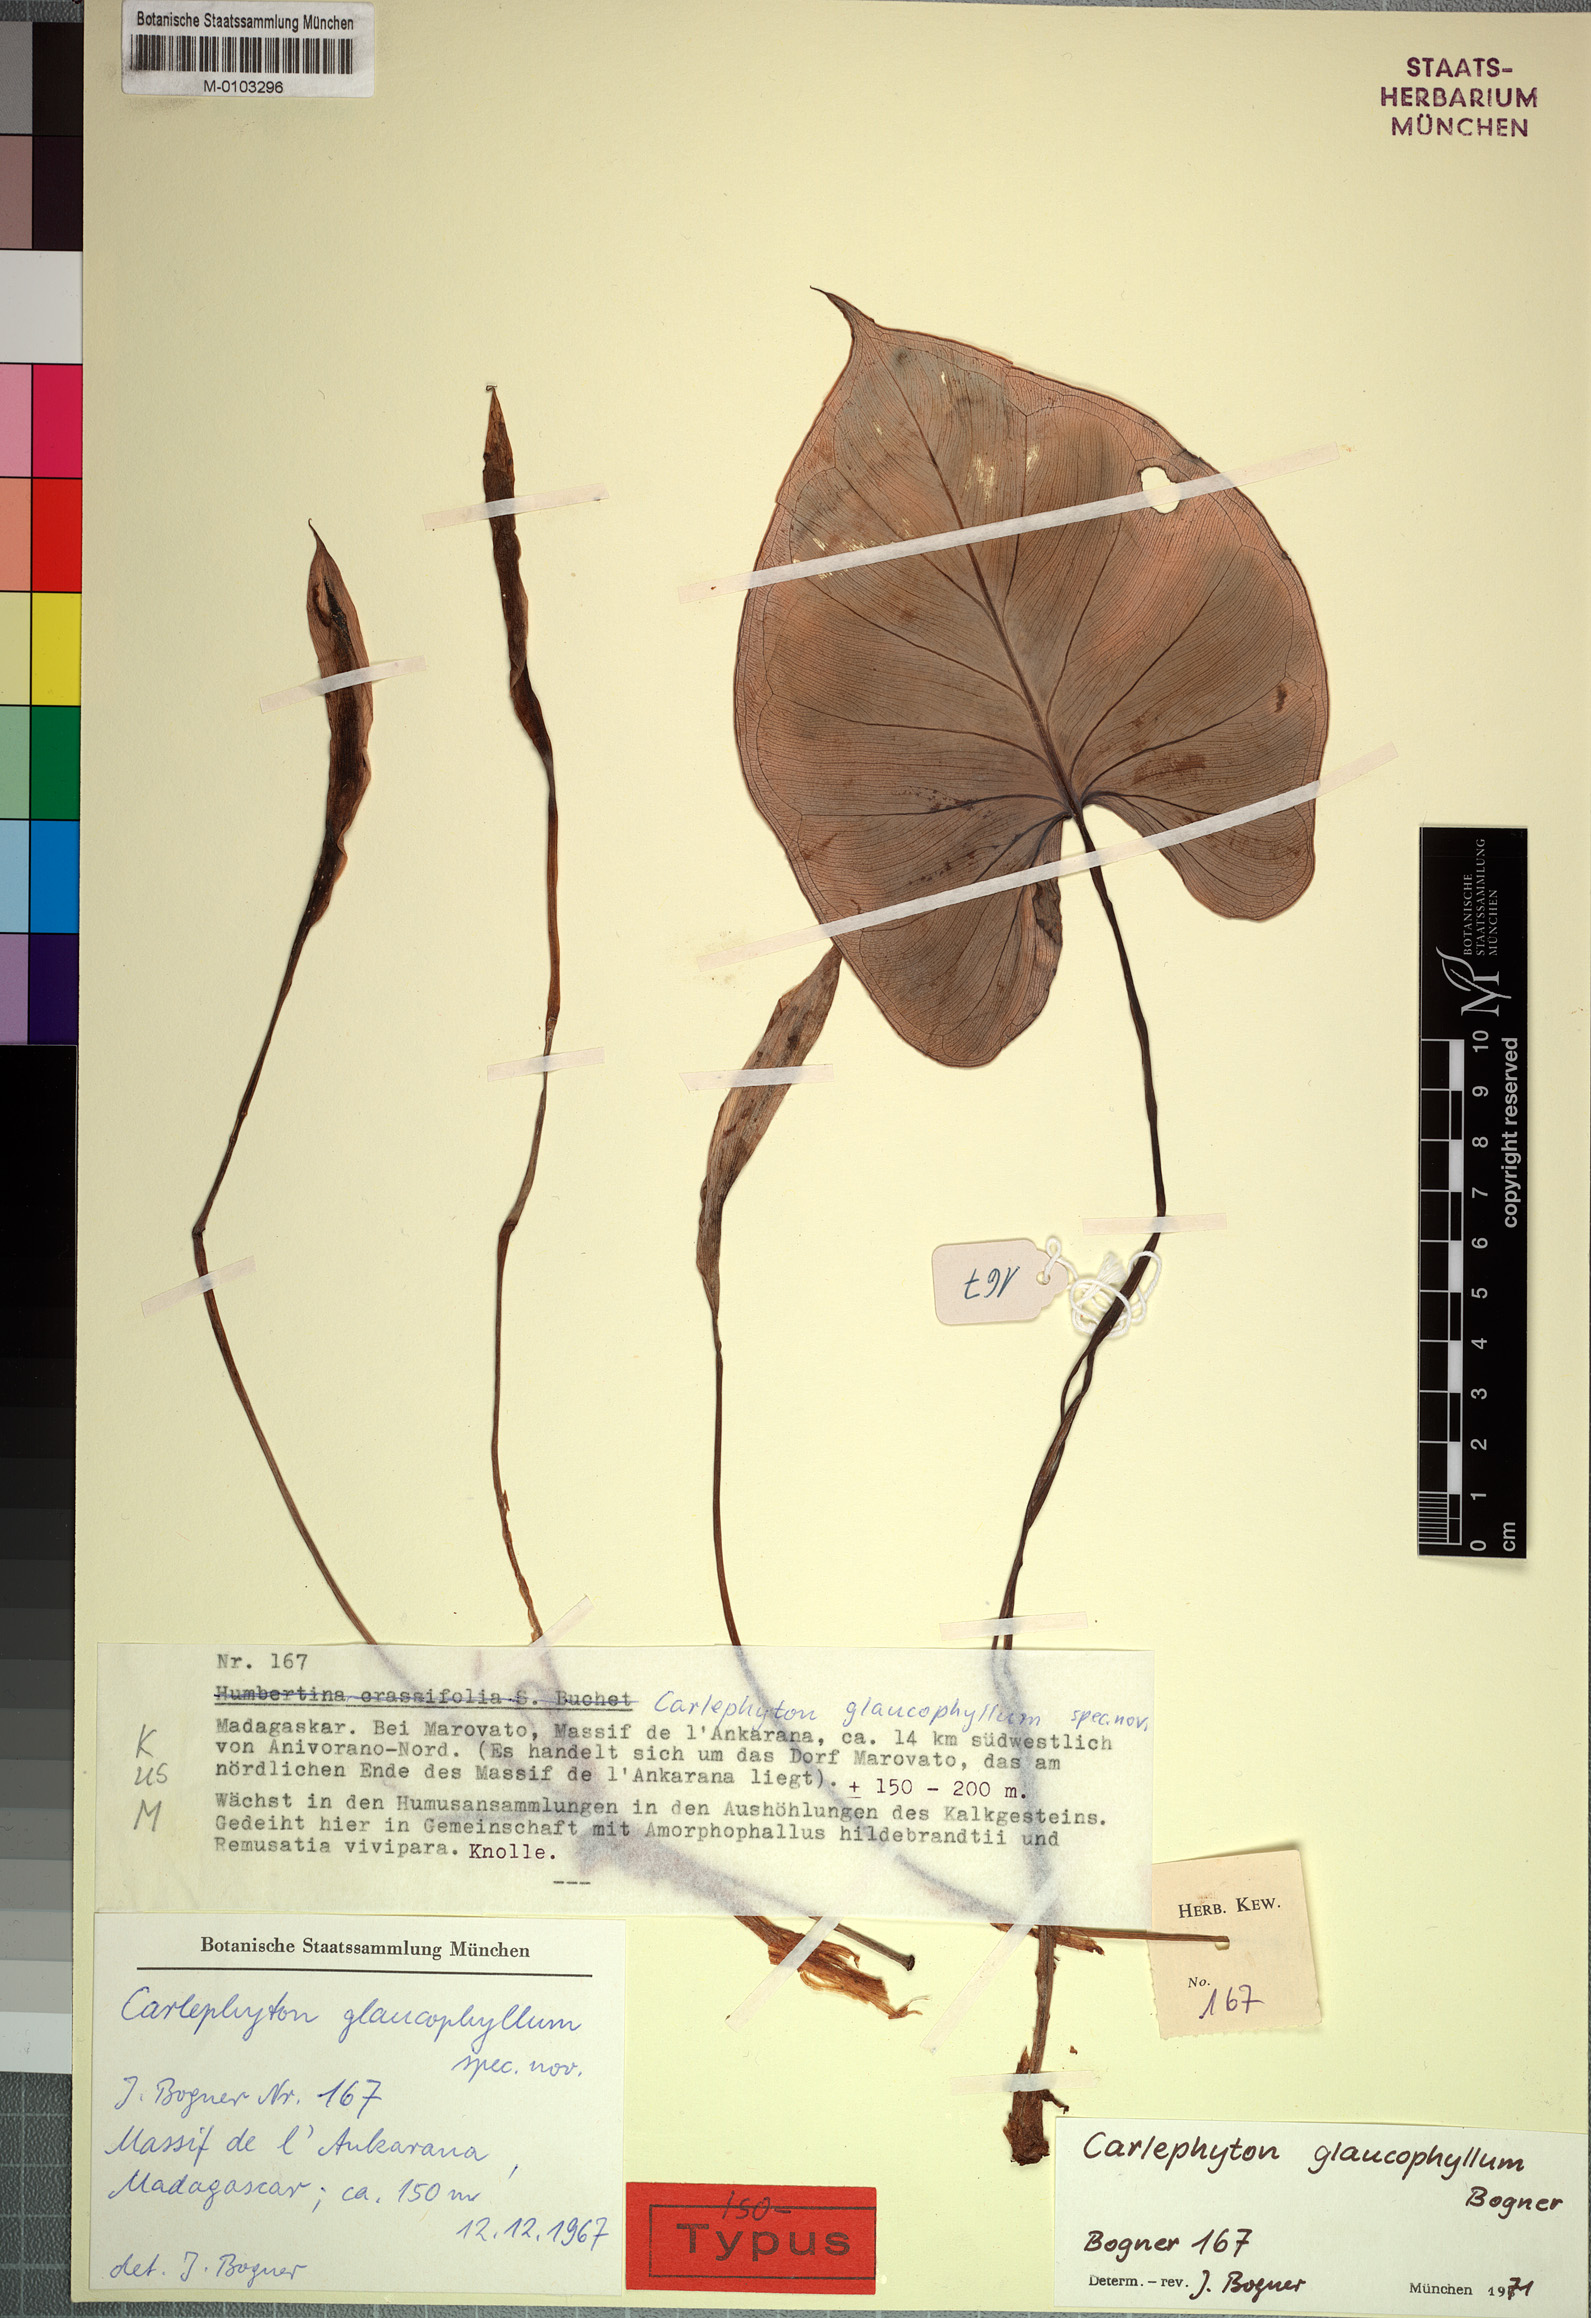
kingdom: Plantae
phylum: Tracheophyta
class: Liliopsida
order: Alismatales
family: Araceae
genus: Carlephyton
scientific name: Carlephyton glaucophyllum
